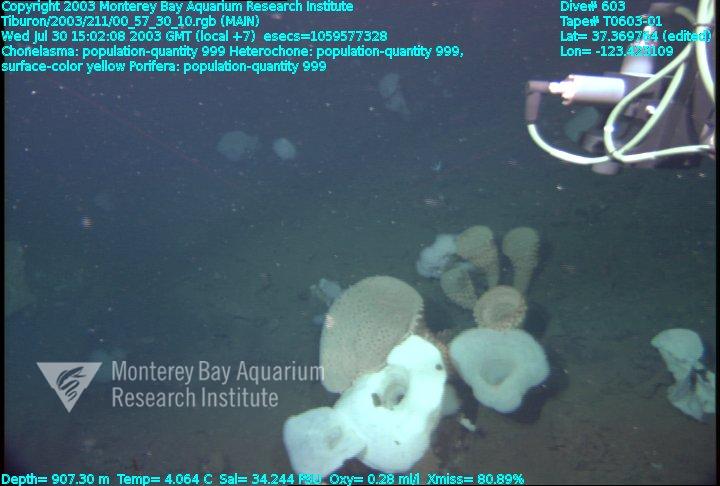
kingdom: Animalia
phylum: Porifera
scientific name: Porifera
